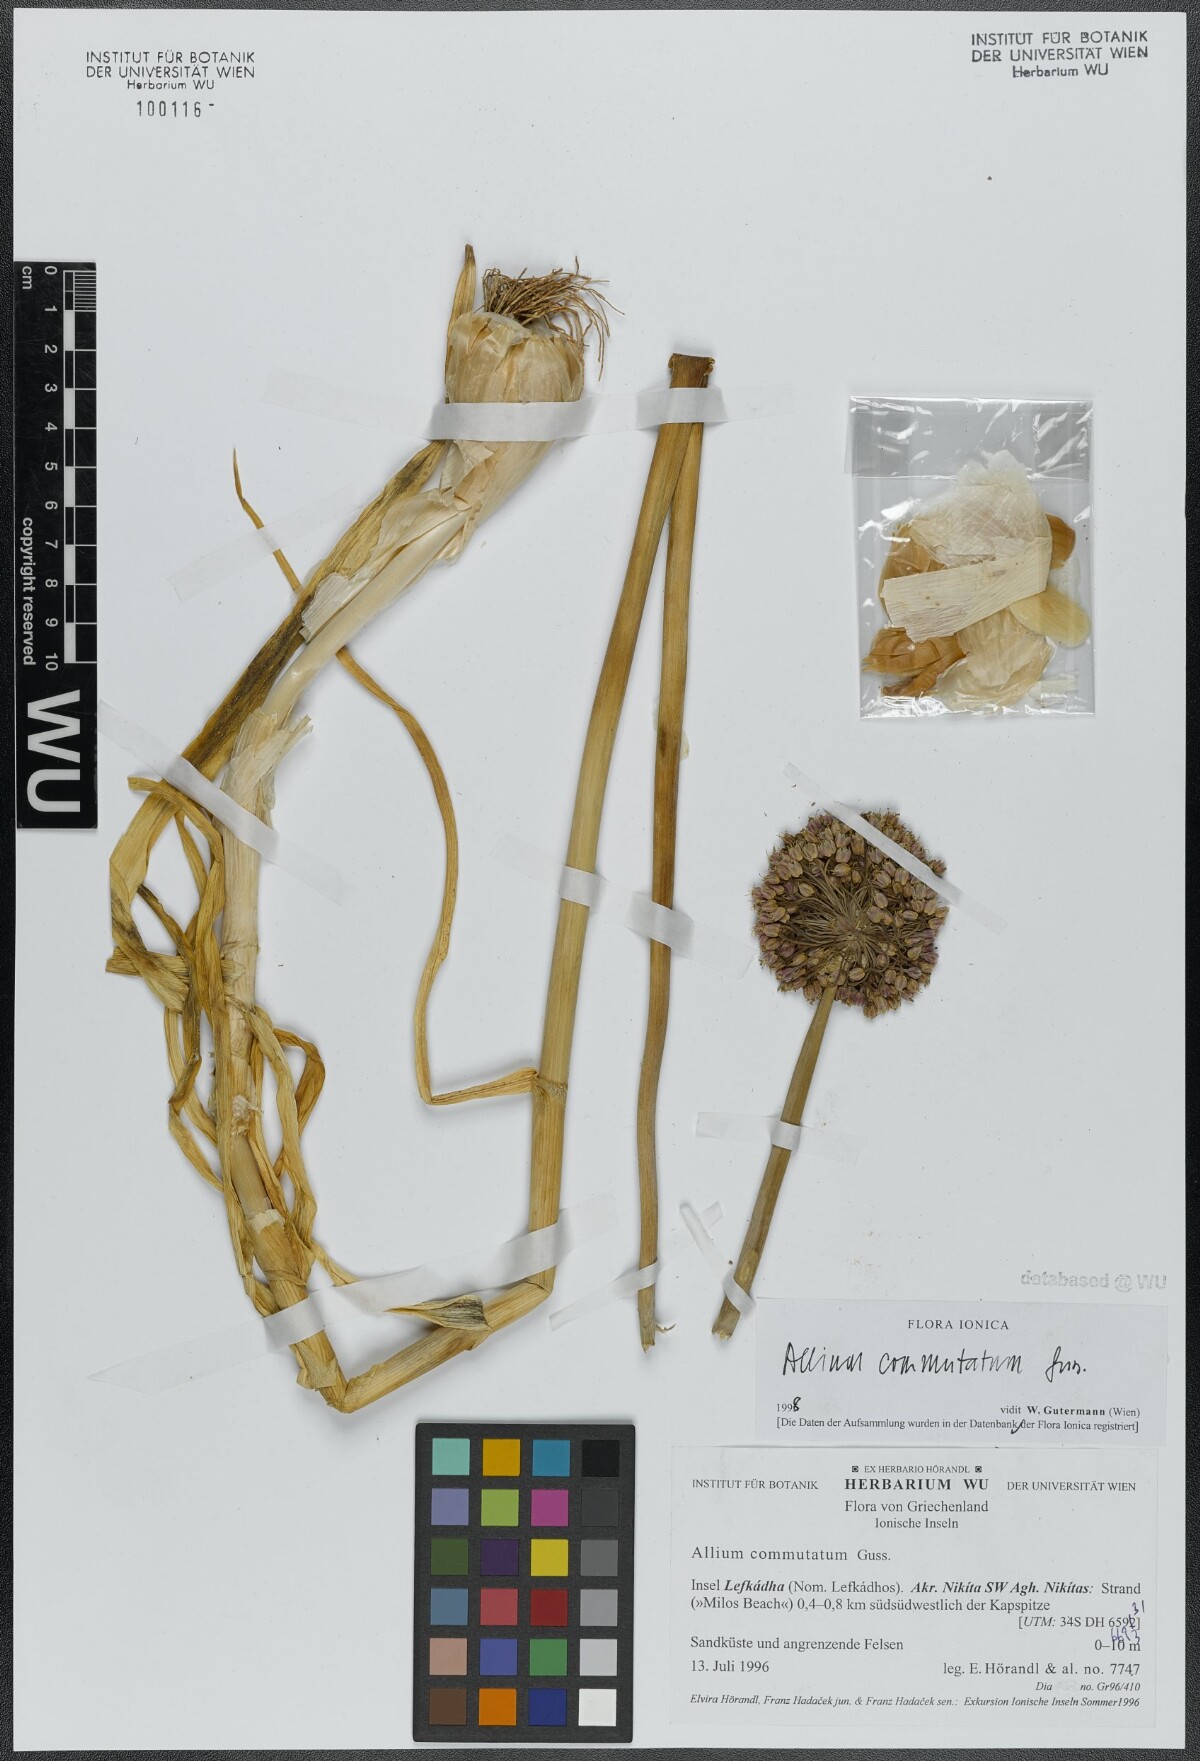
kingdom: Plantae
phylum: Tracheophyta
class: Liliopsida
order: Asparagales
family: Amaryllidaceae
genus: Allium
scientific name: Allium commutatum
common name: Sea garlic
